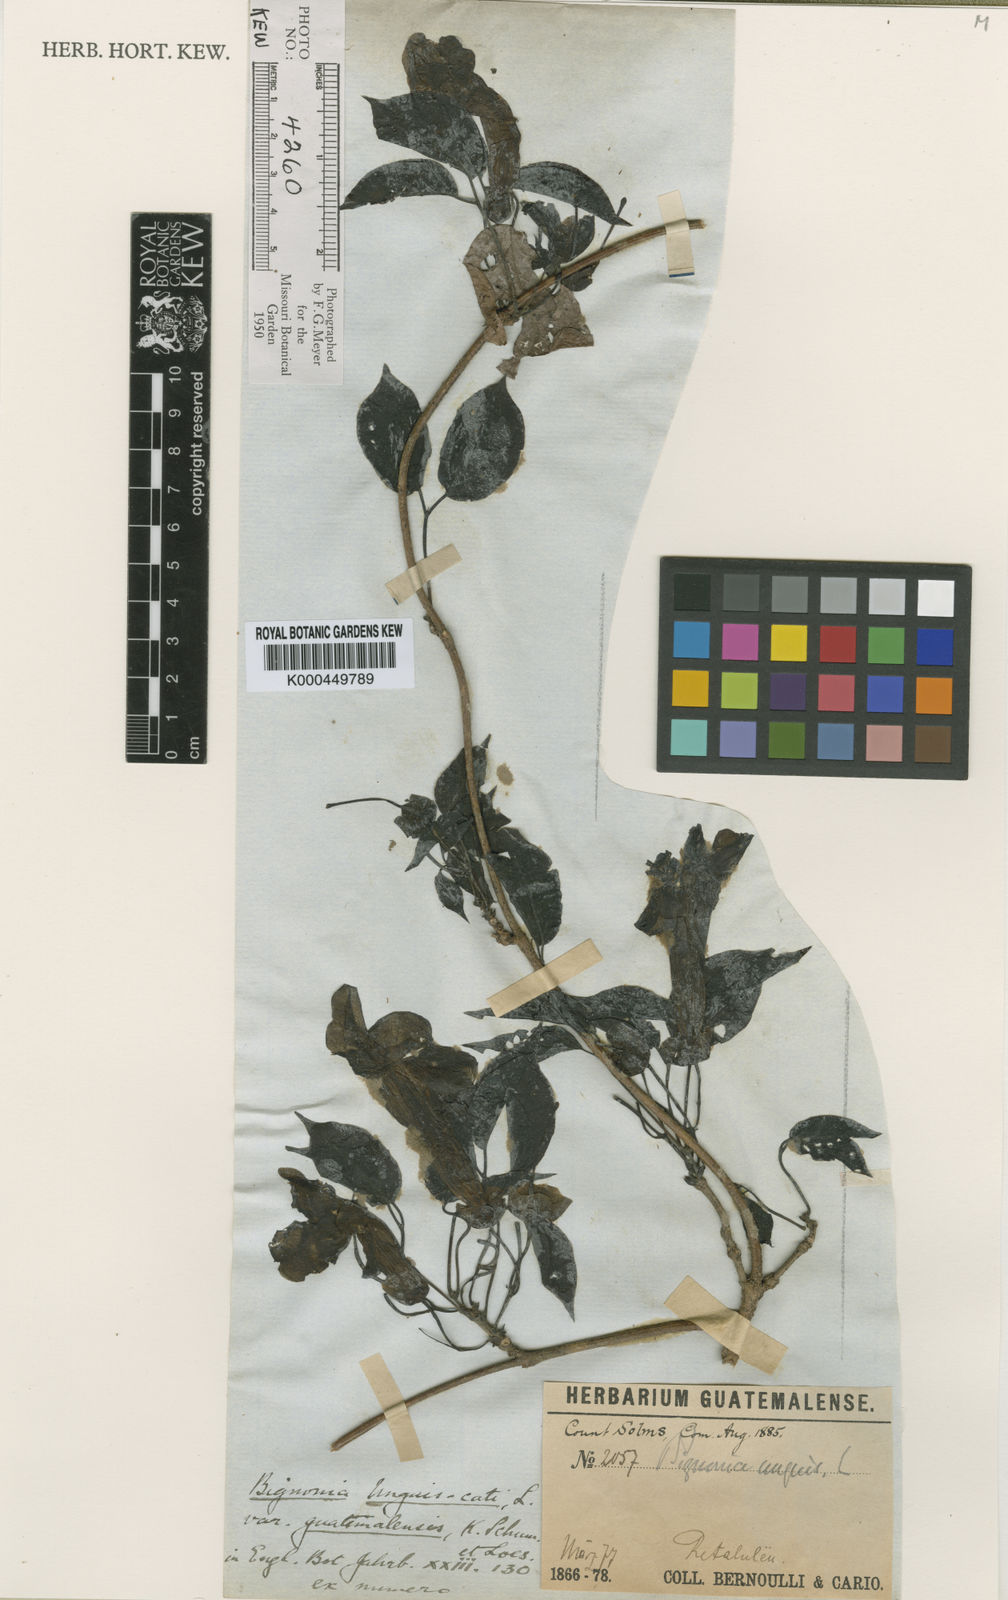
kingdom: Plantae
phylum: Tracheophyta
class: Magnoliopsida
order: Lamiales
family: Bignoniaceae
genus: Dolichandra
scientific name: Dolichandra unguis-cati
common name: Catclaw vine
